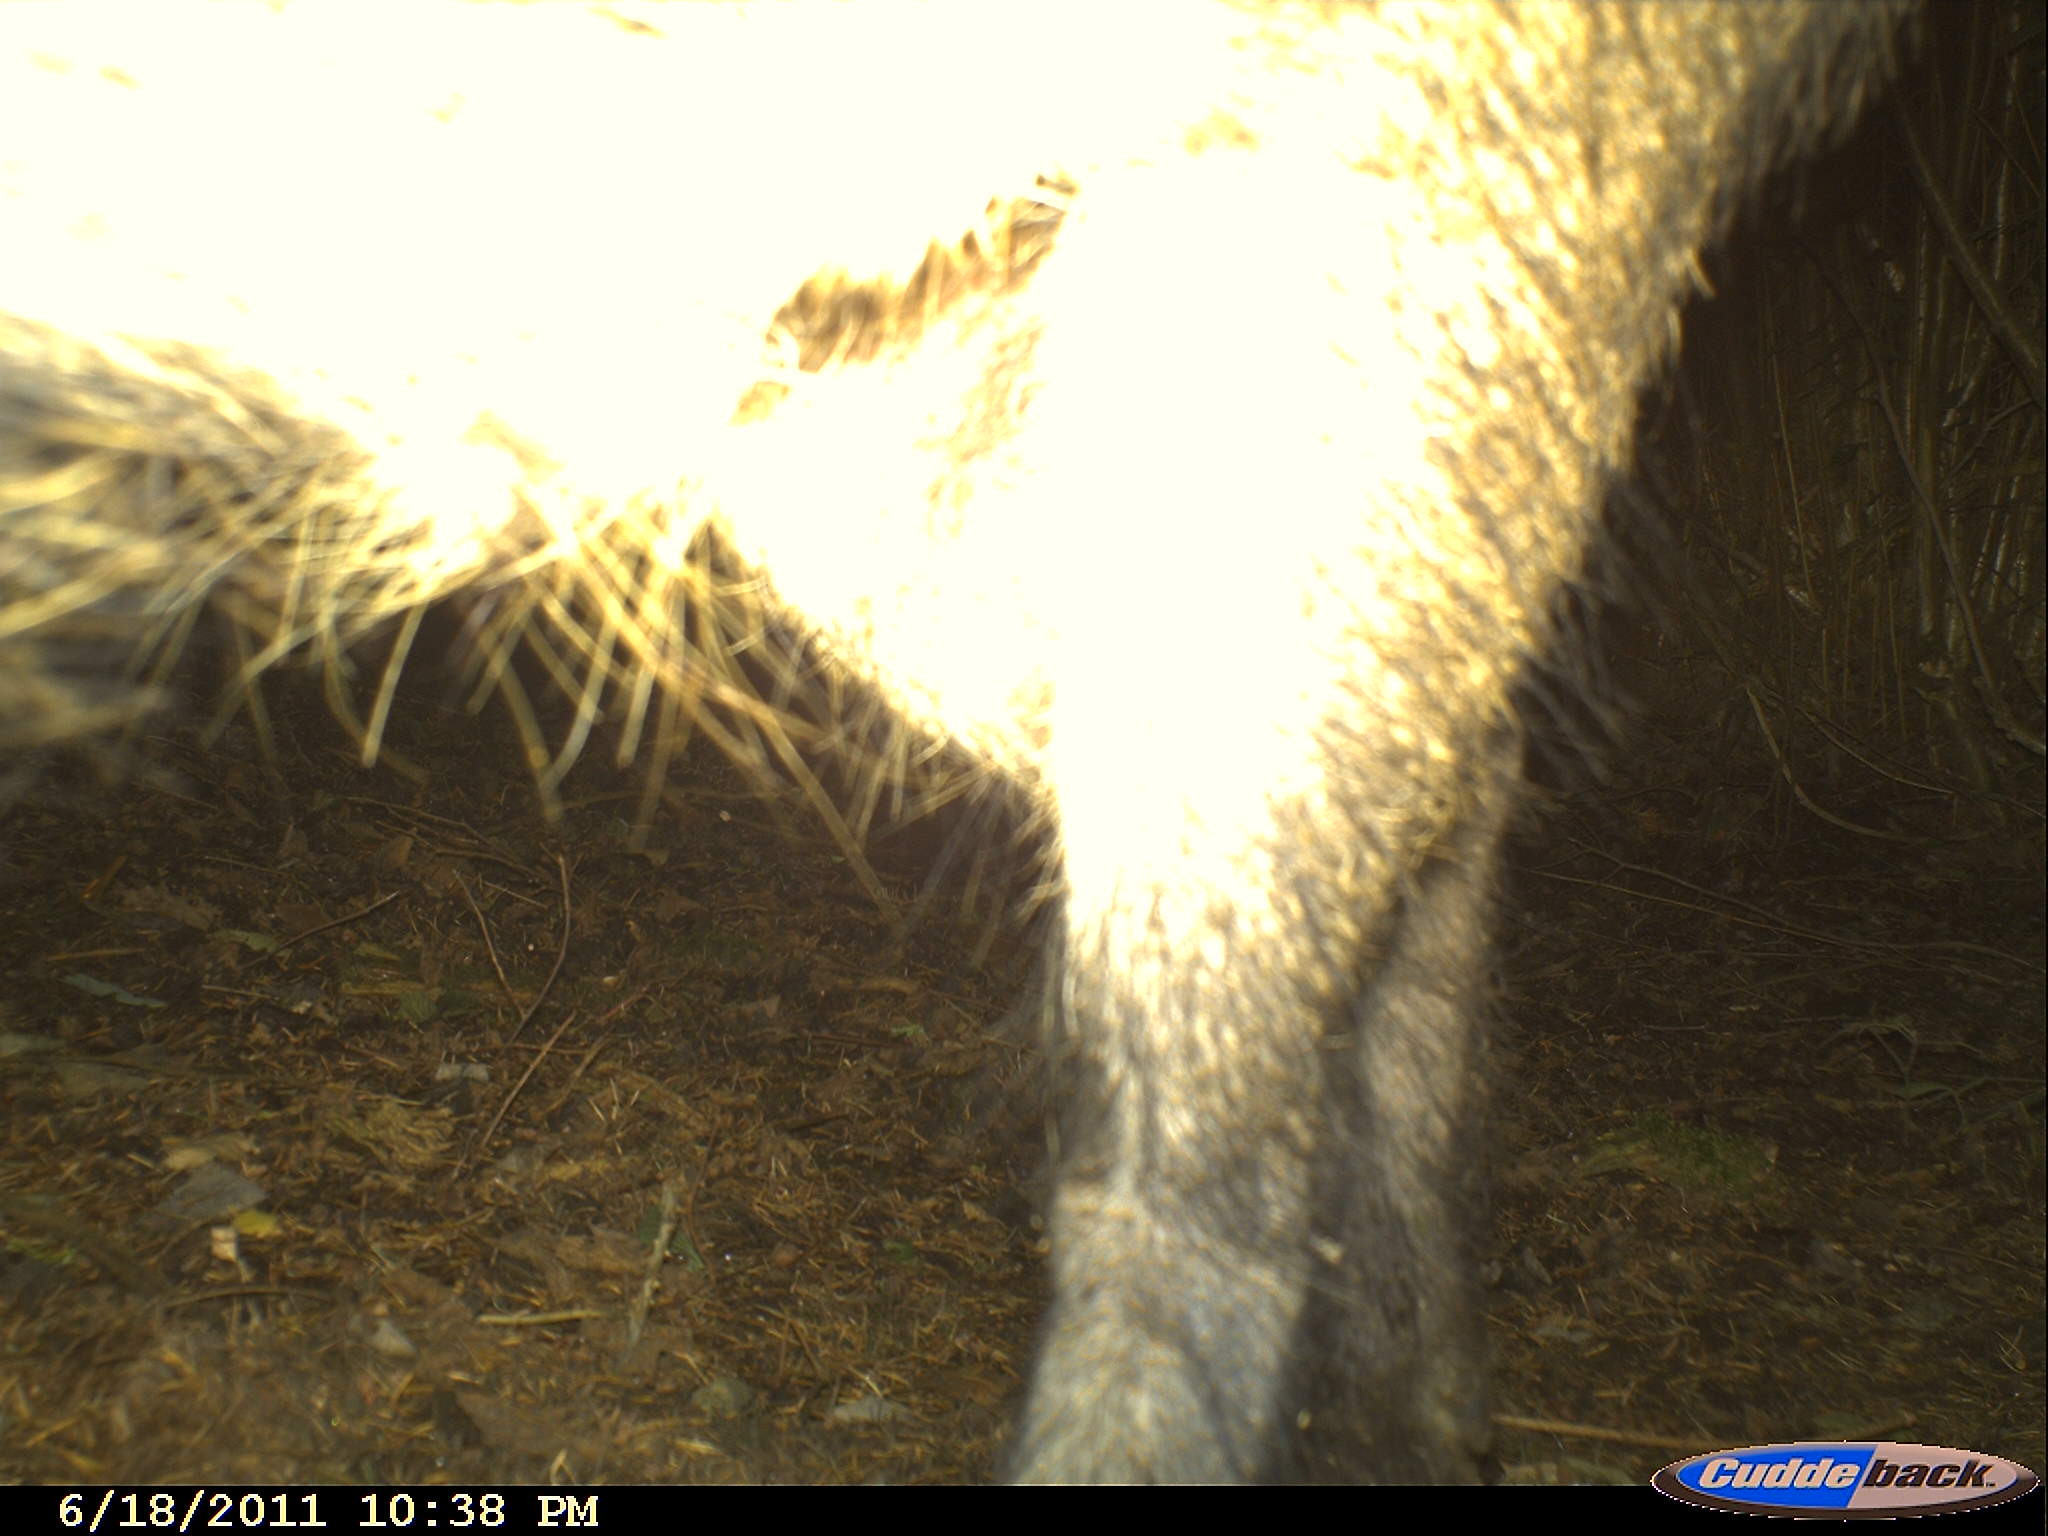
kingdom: Animalia
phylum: Chordata
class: Mammalia
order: Artiodactyla
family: Suidae
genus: Sus
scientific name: Sus scrofa
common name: Wild boar
